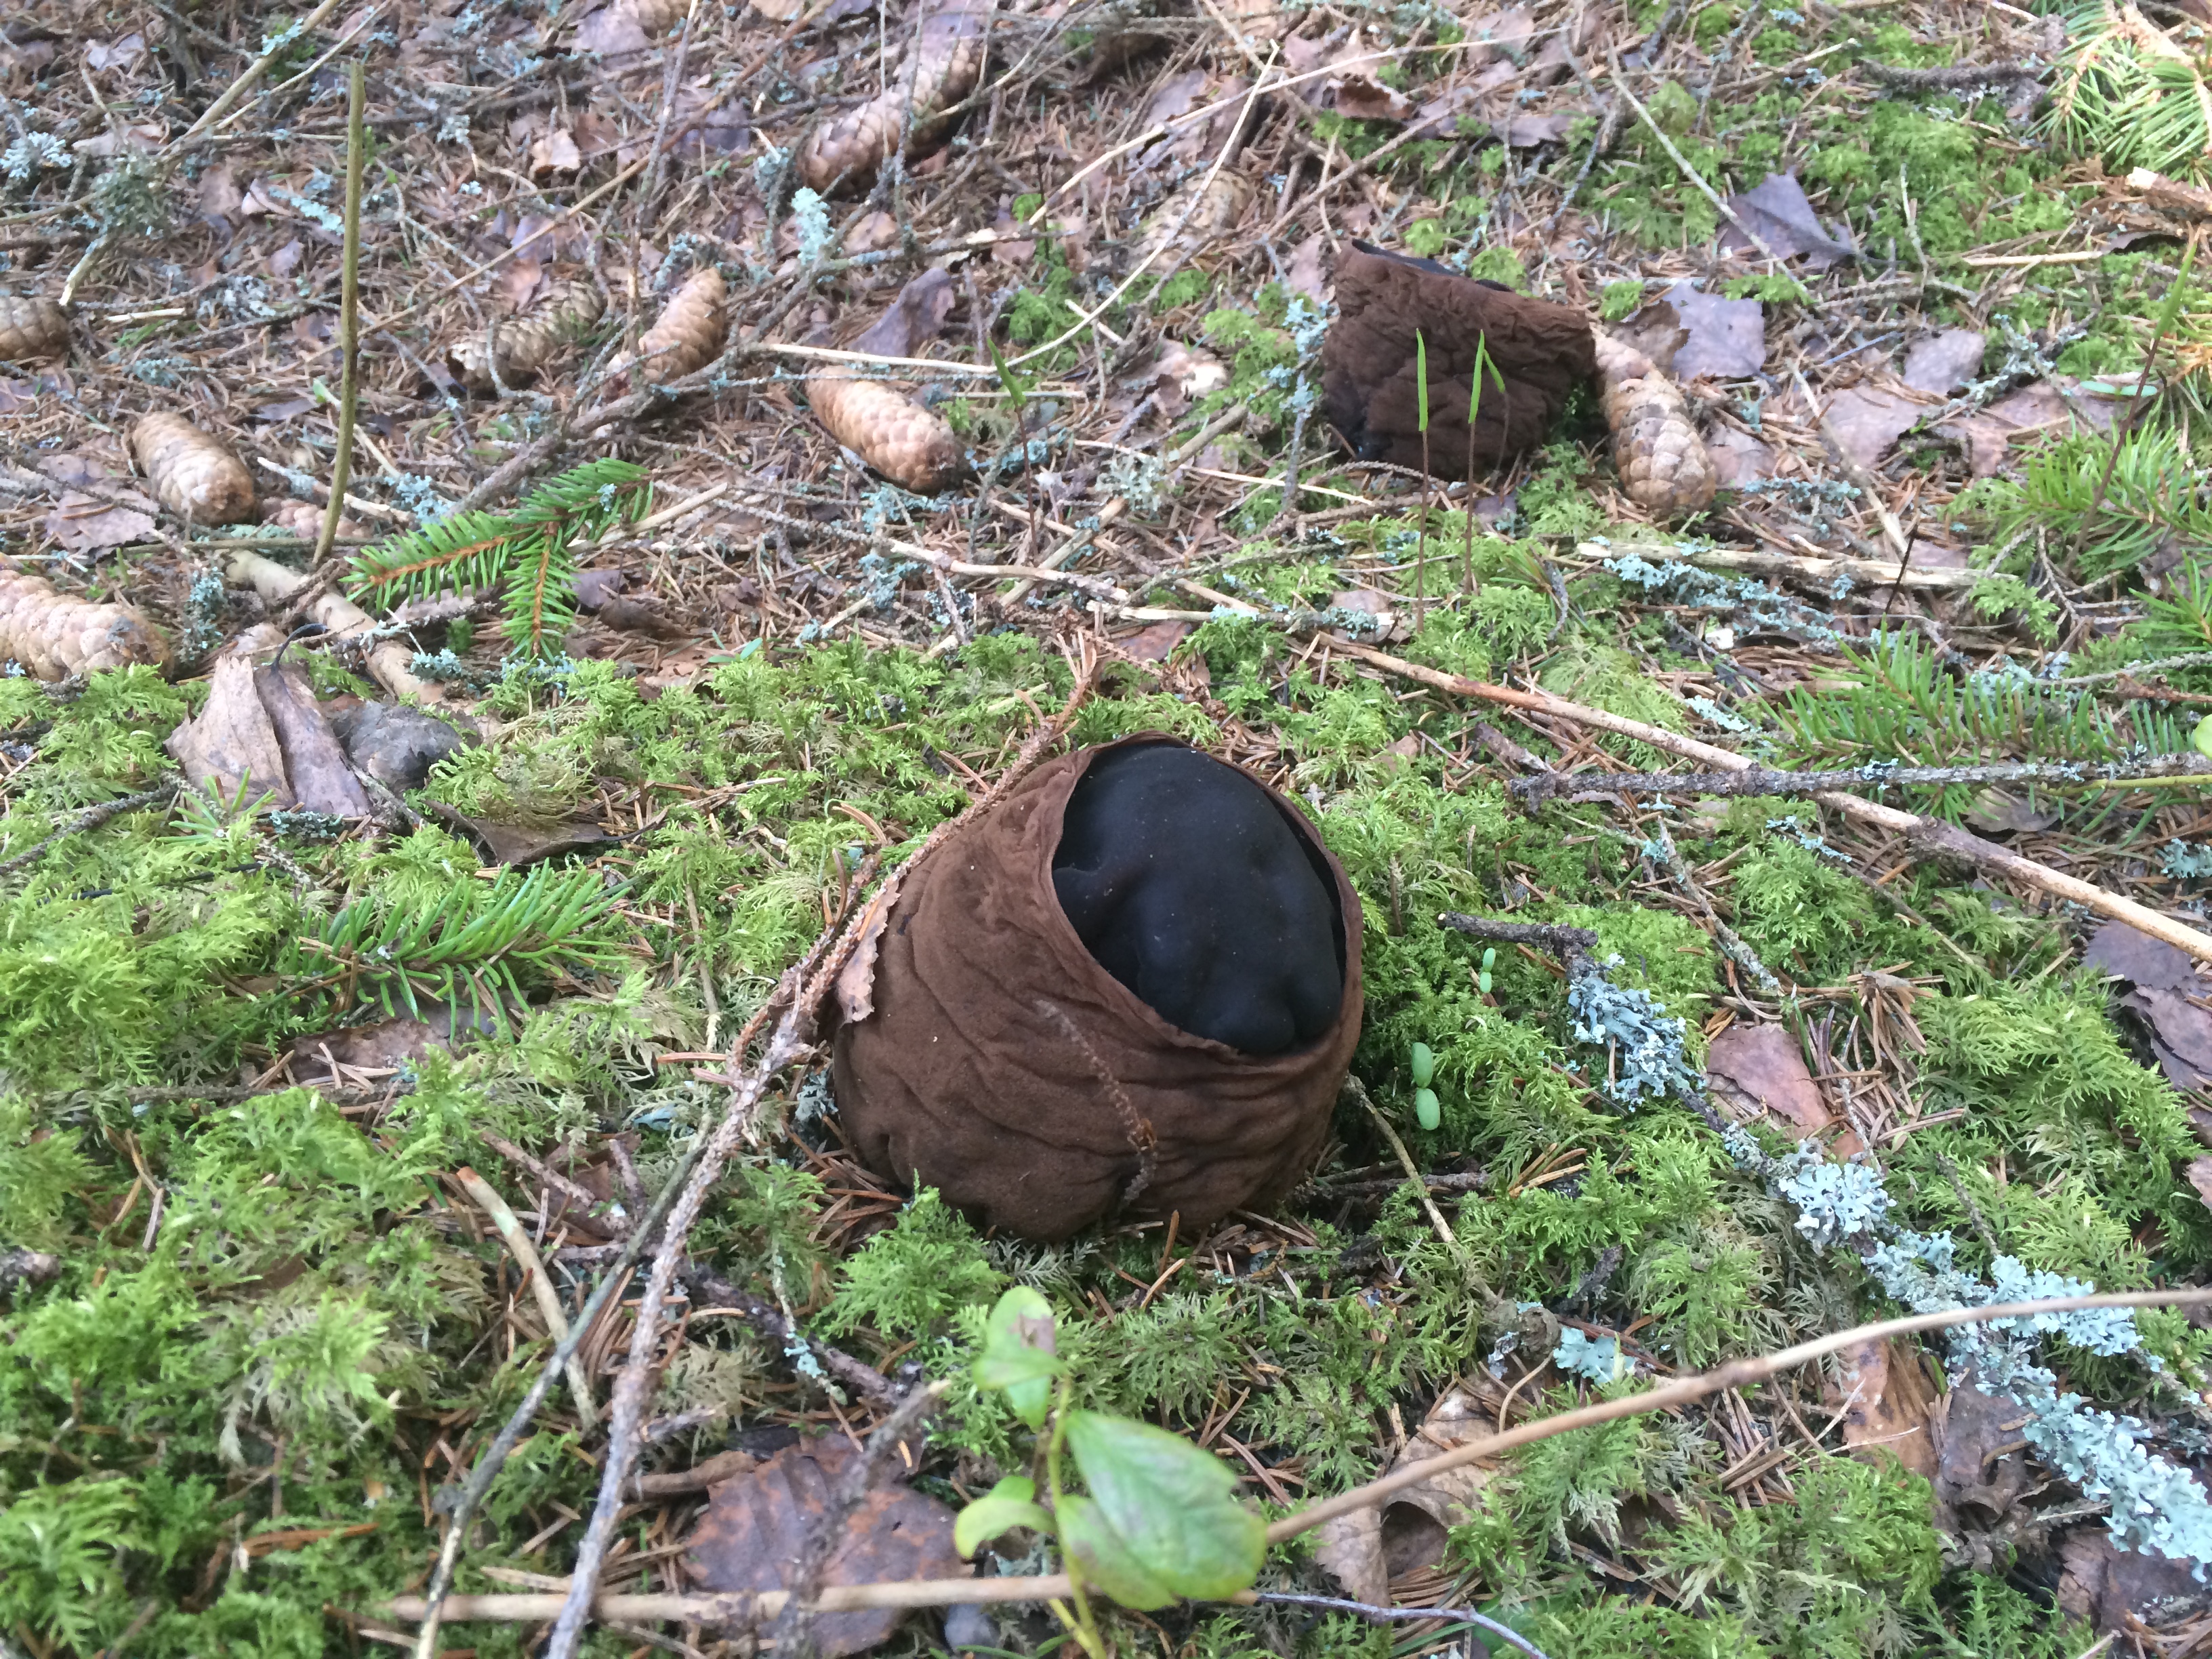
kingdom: Fungi
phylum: Ascomycota
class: Pezizomycetes
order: Pezizales
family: Sarcosomataceae
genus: Sarcosoma
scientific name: Sarcosoma globosum
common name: Charred-pancake cup
